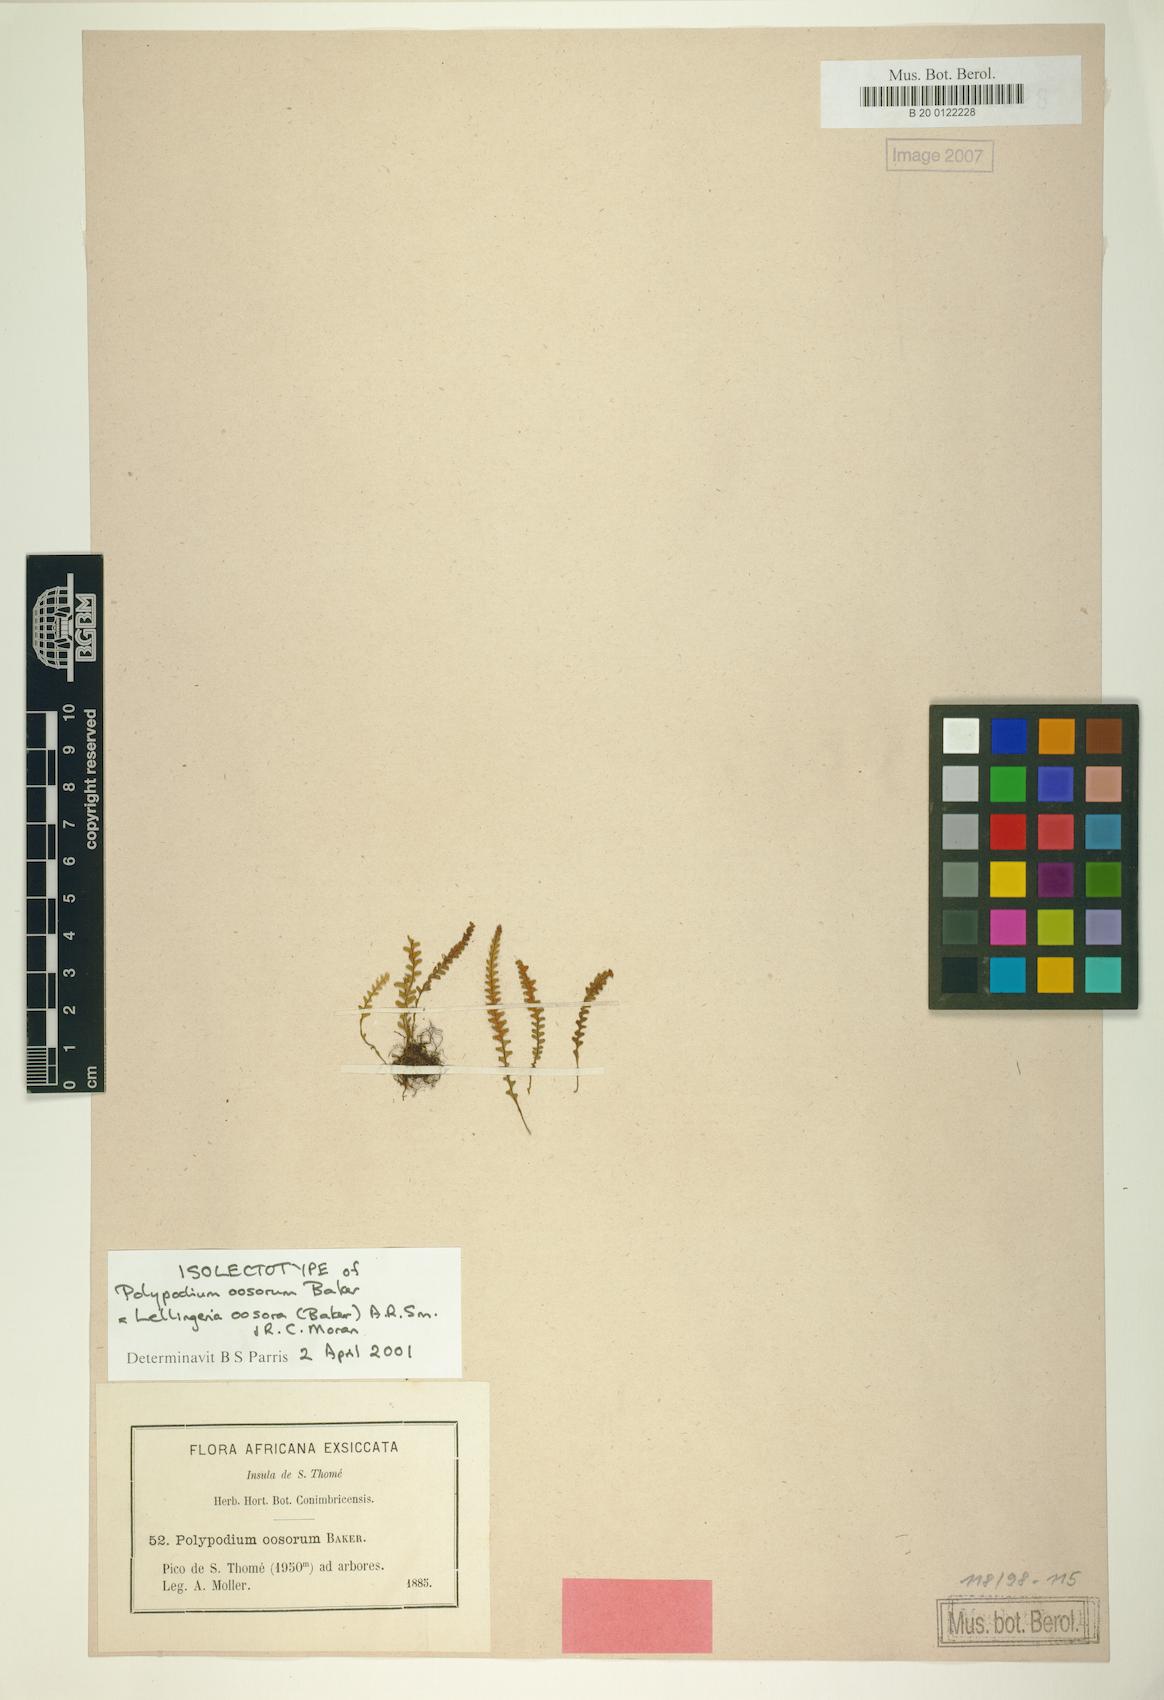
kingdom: Plantae
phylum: Tracheophyta
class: Polypodiopsida
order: Polypodiales
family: Polypodiaceae
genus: Stenogrammitis
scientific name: Stenogrammitis oosora
